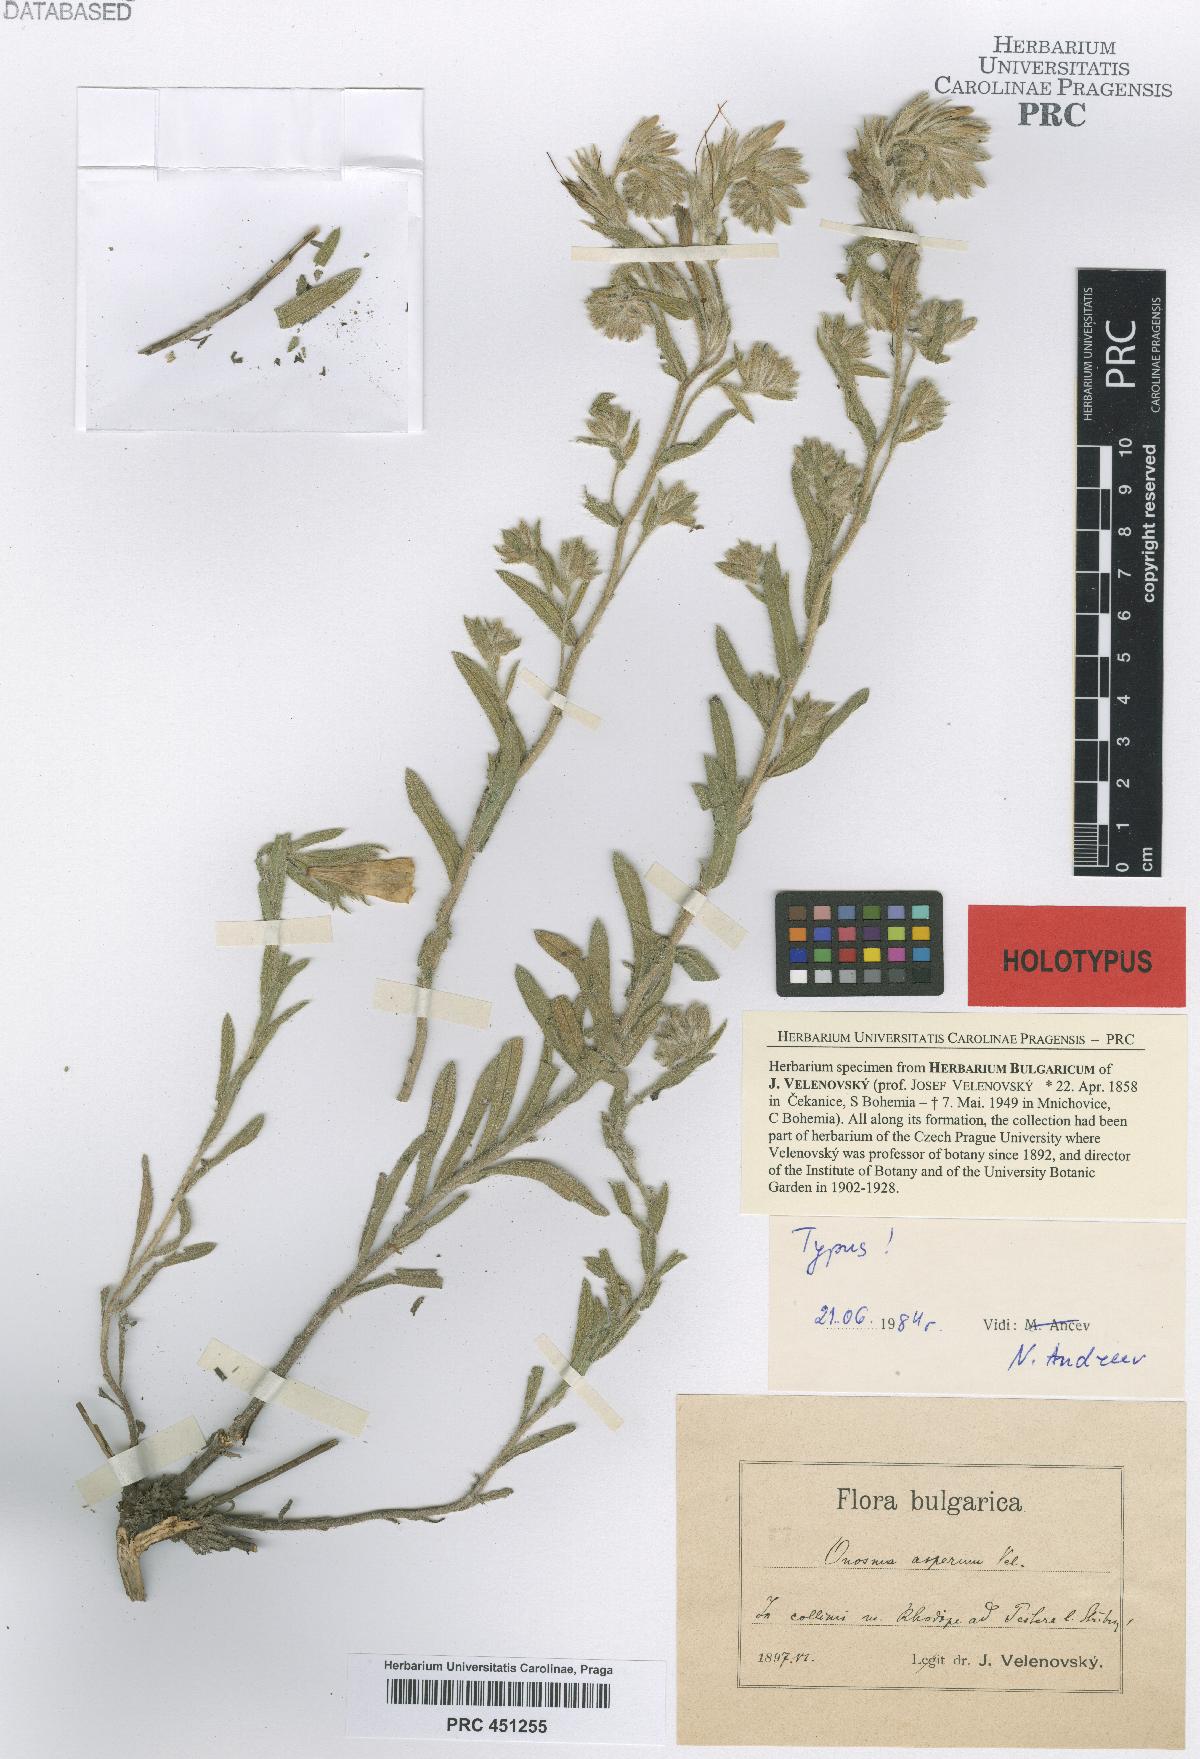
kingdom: Plantae
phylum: Tracheophyta
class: Magnoliopsida
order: Boraginales
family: Boraginaceae
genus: Onosma
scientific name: Onosma heterophylla
